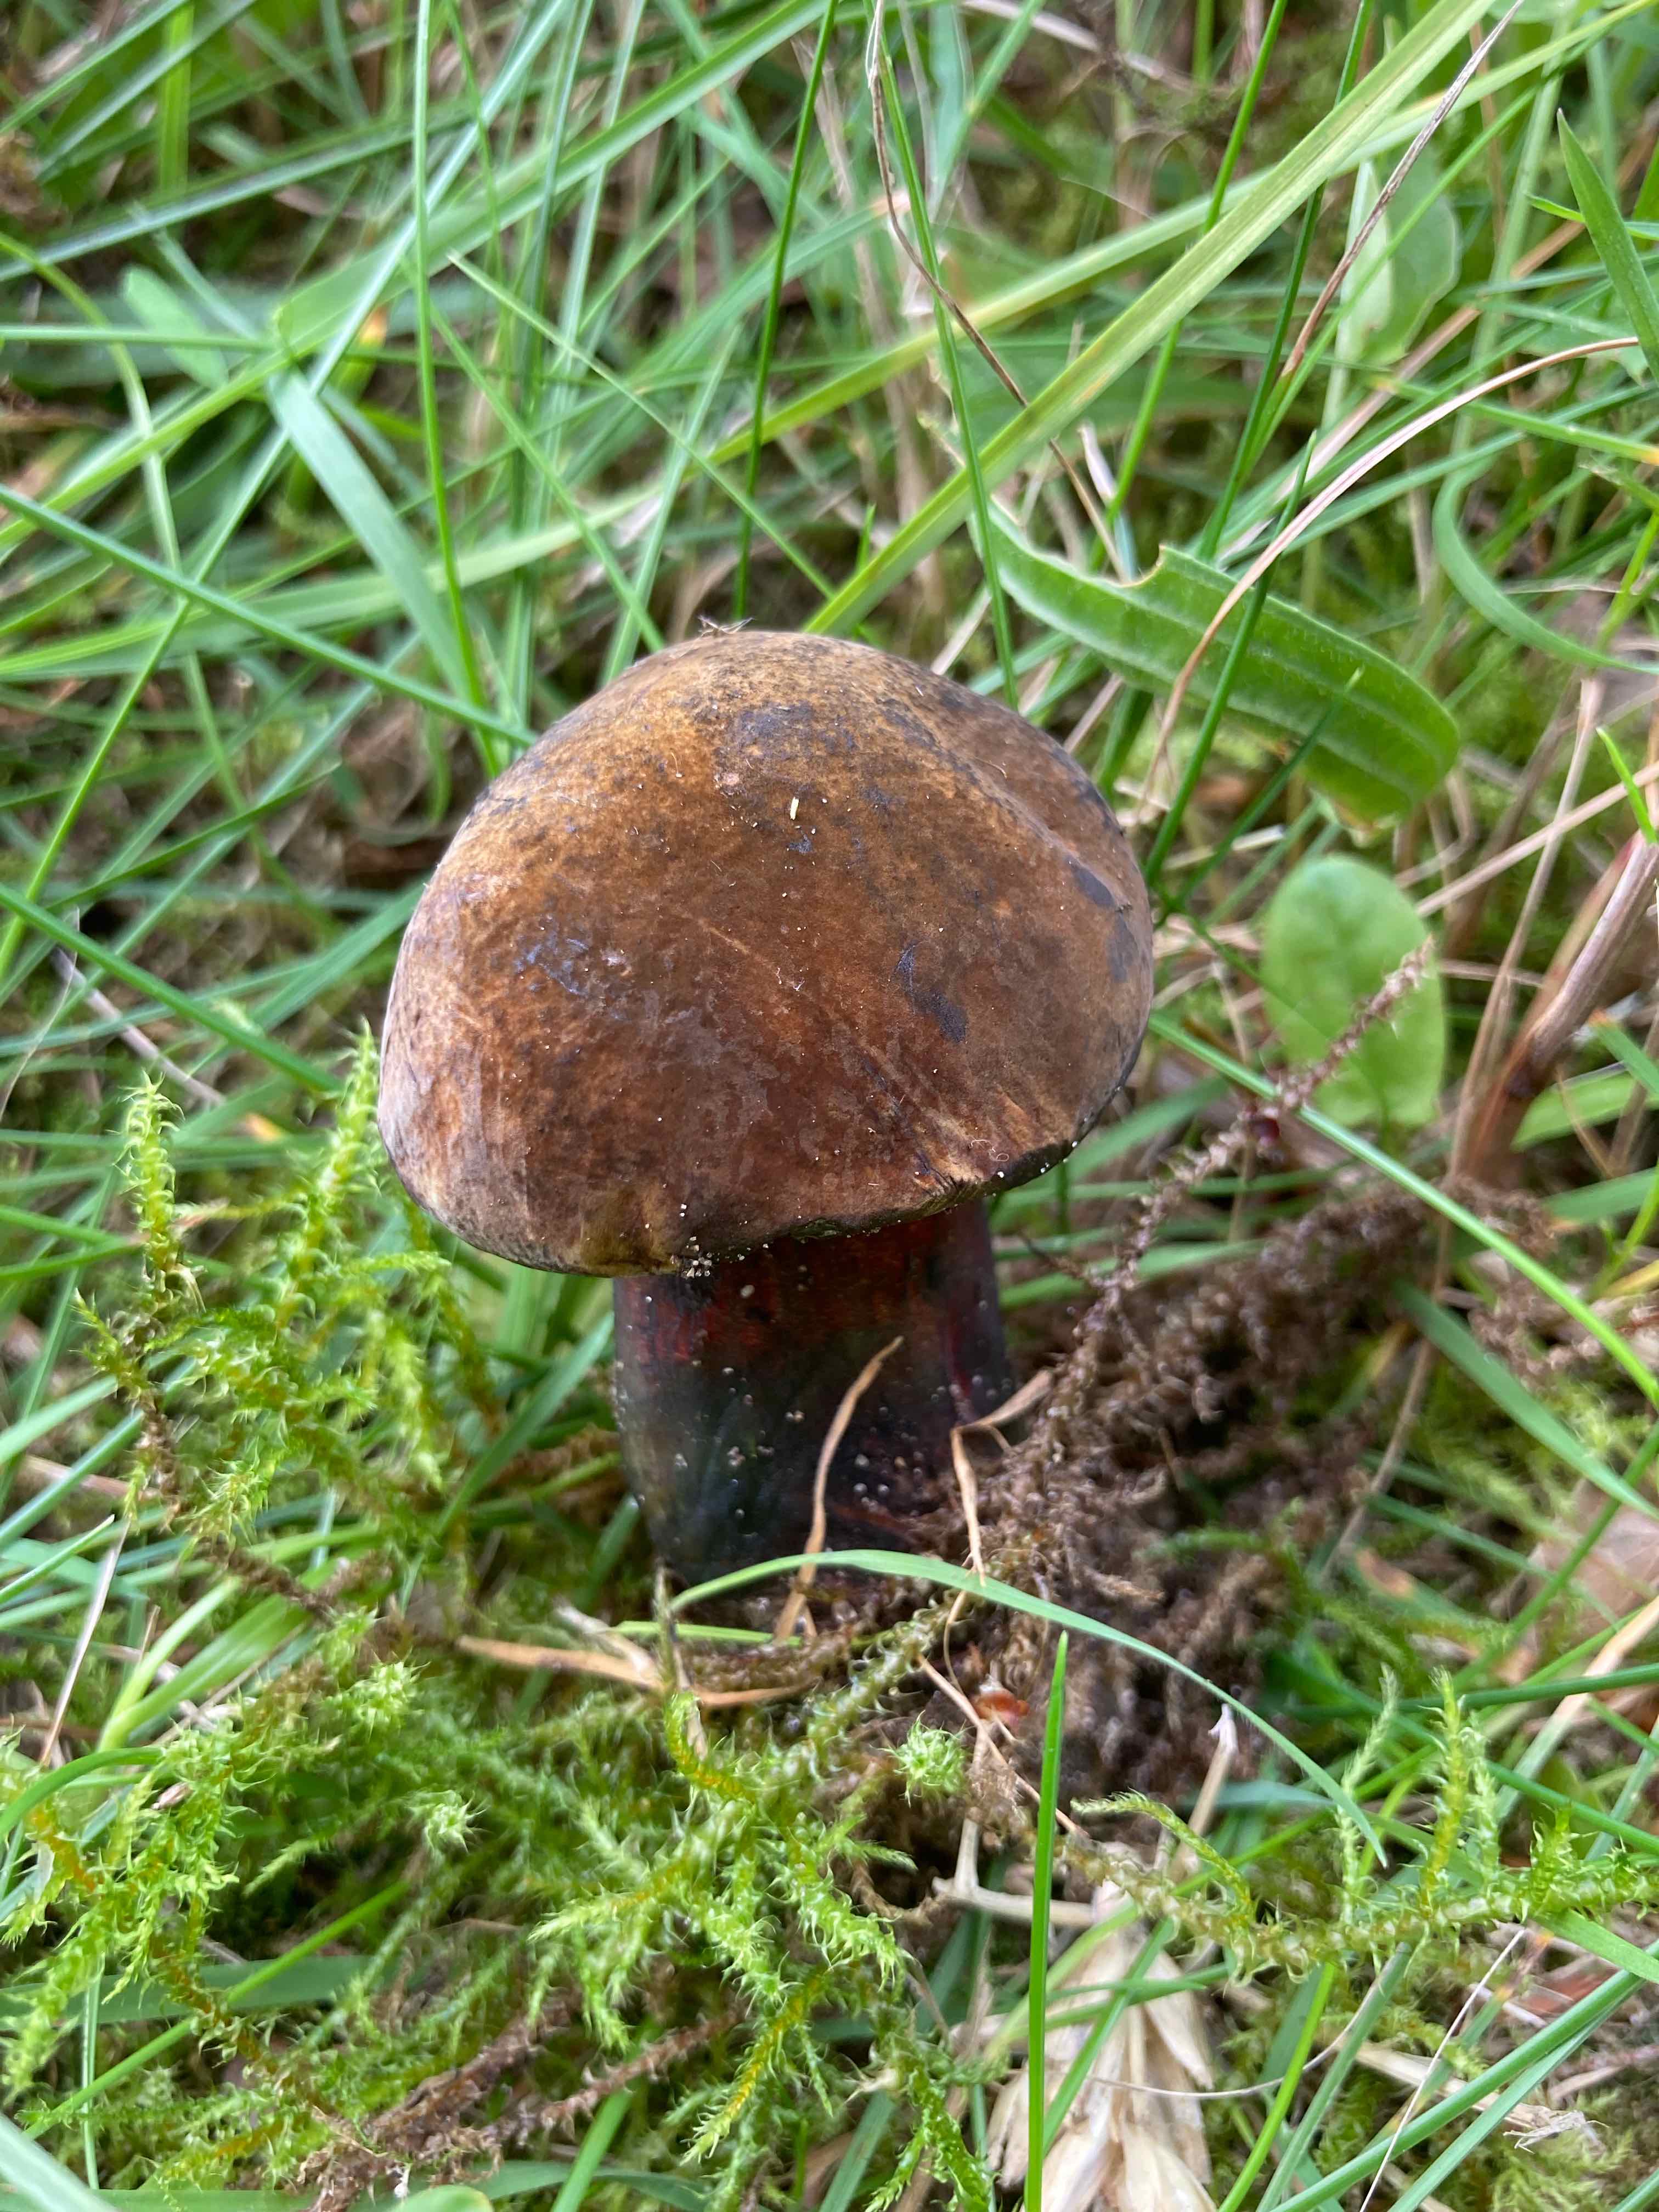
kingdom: Fungi
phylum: Basidiomycota
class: Agaricomycetes
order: Boletales
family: Boletaceae
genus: Neoboletus
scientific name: Neoboletus erythropus
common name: punktstokket indigorørhat
